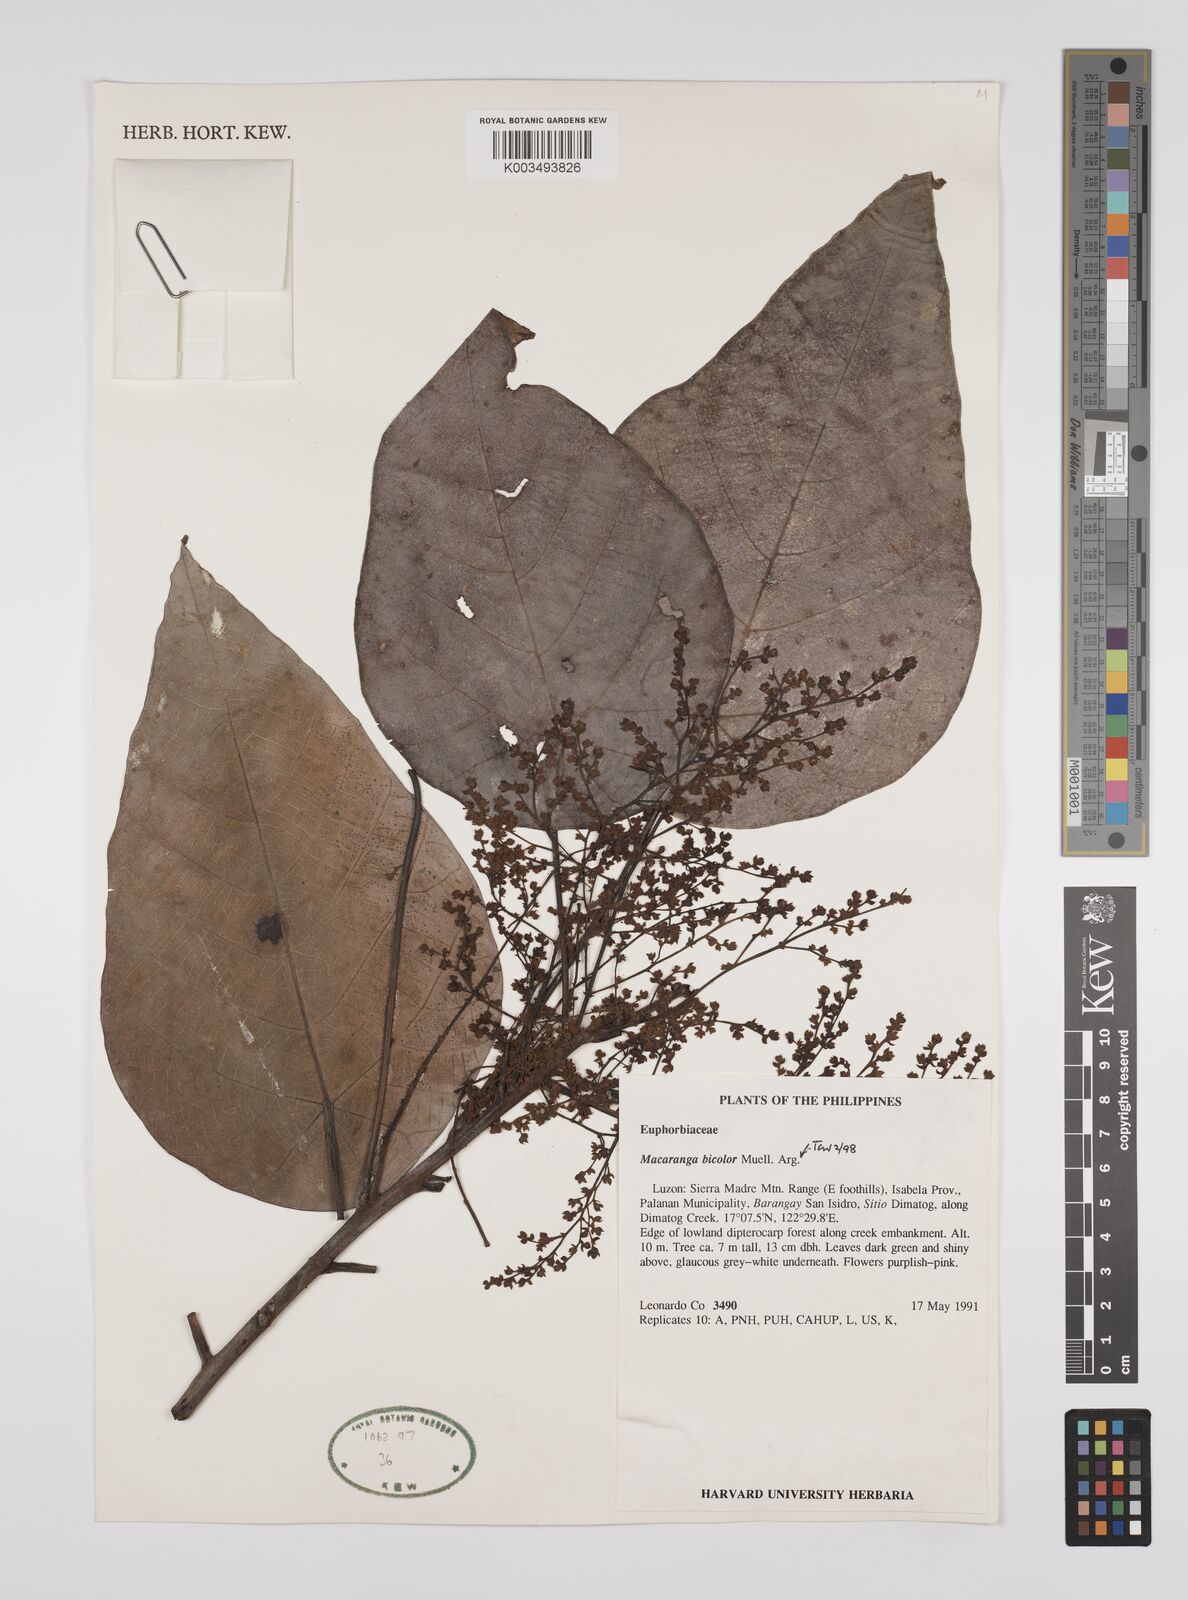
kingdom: Plantae
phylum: Tracheophyta
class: Magnoliopsida
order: Malpighiales
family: Euphorbiaceae
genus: Macaranga
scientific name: Macaranga bicolor
